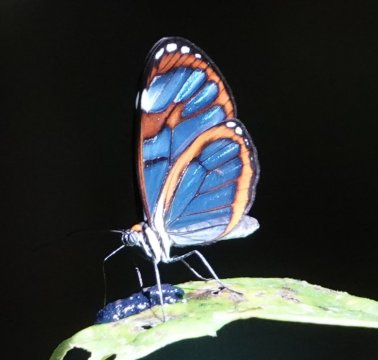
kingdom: Animalia
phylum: Arthropoda
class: Insecta
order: Lepidoptera
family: Nymphalidae
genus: Ithomia
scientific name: Ithomia
